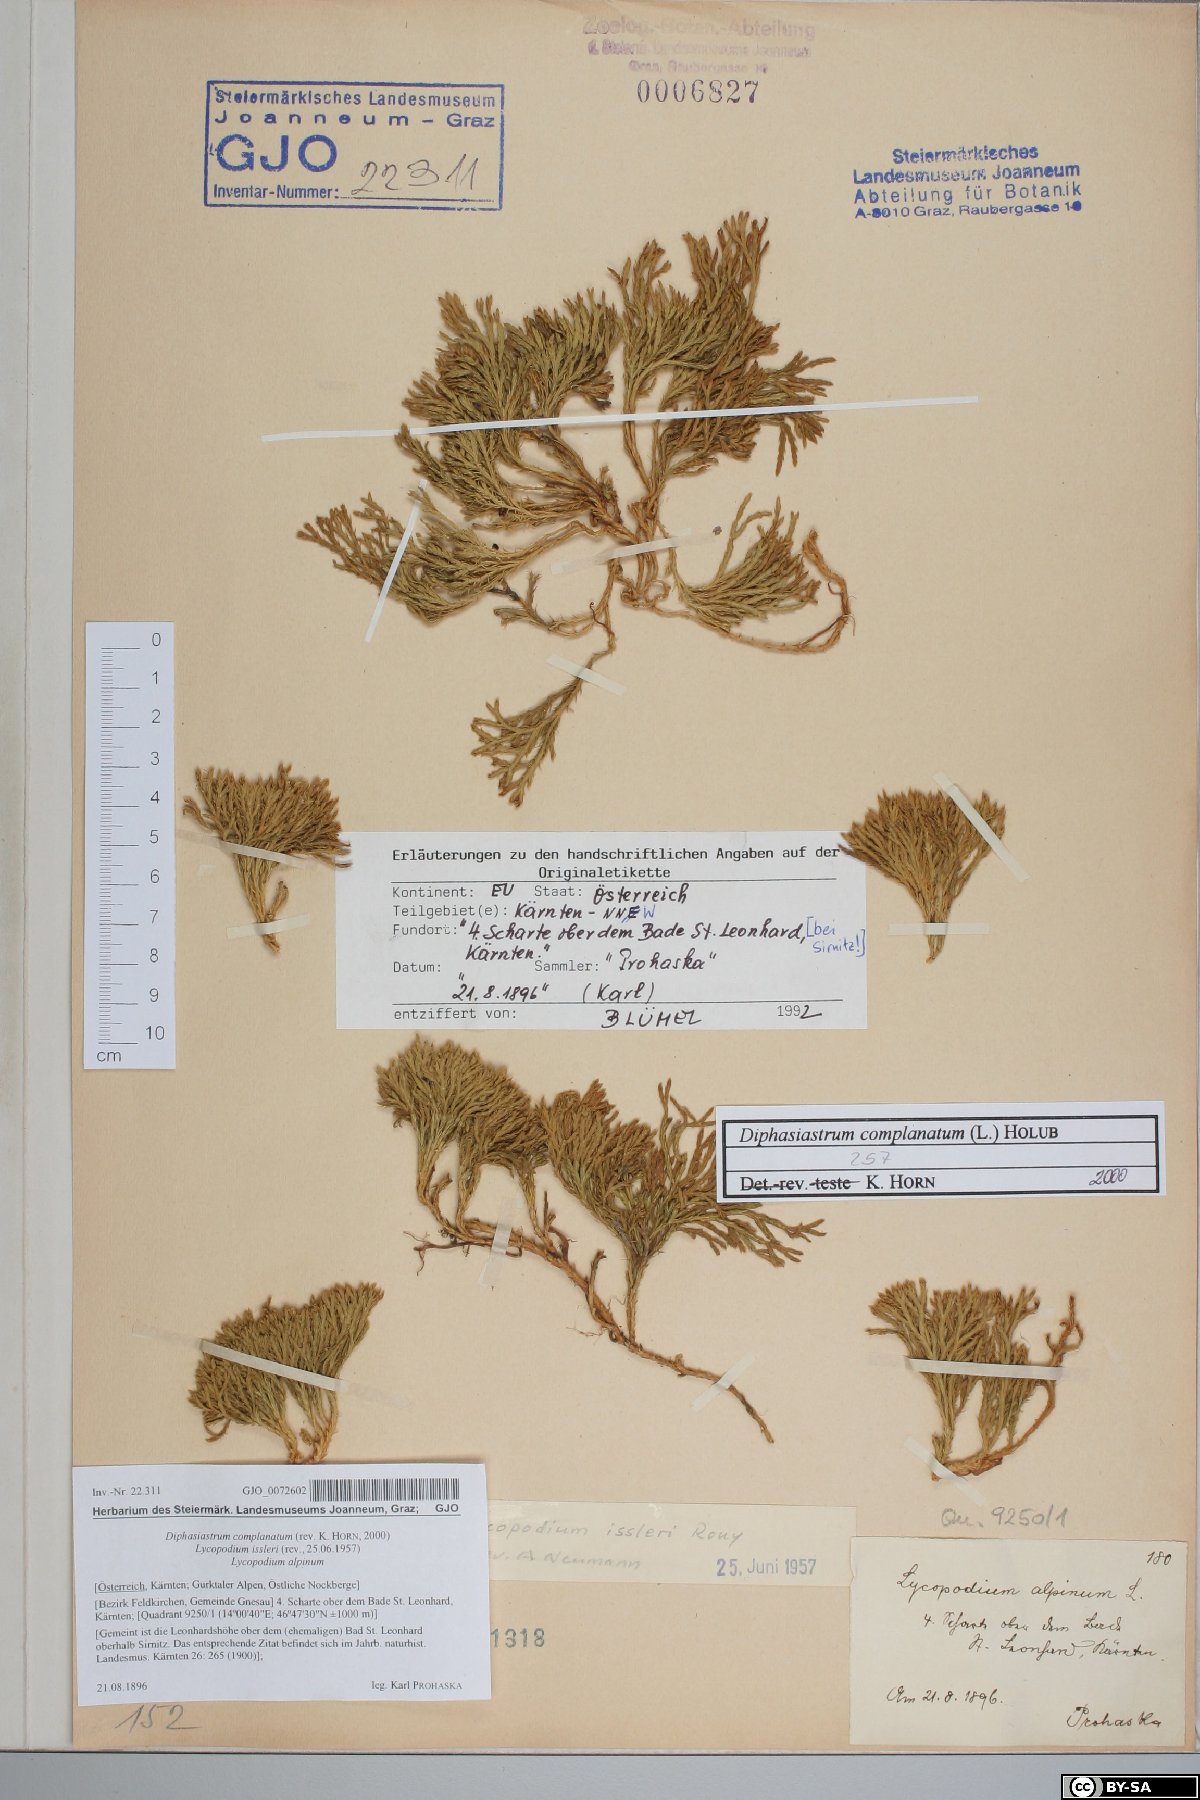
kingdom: Plantae
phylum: Tracheophyta
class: Lycopodiopsida
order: Lycopodiales
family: Lycopodiaceae
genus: Diphasiastrum
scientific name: Diphasiastrum complanatum
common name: Northern running-pine
